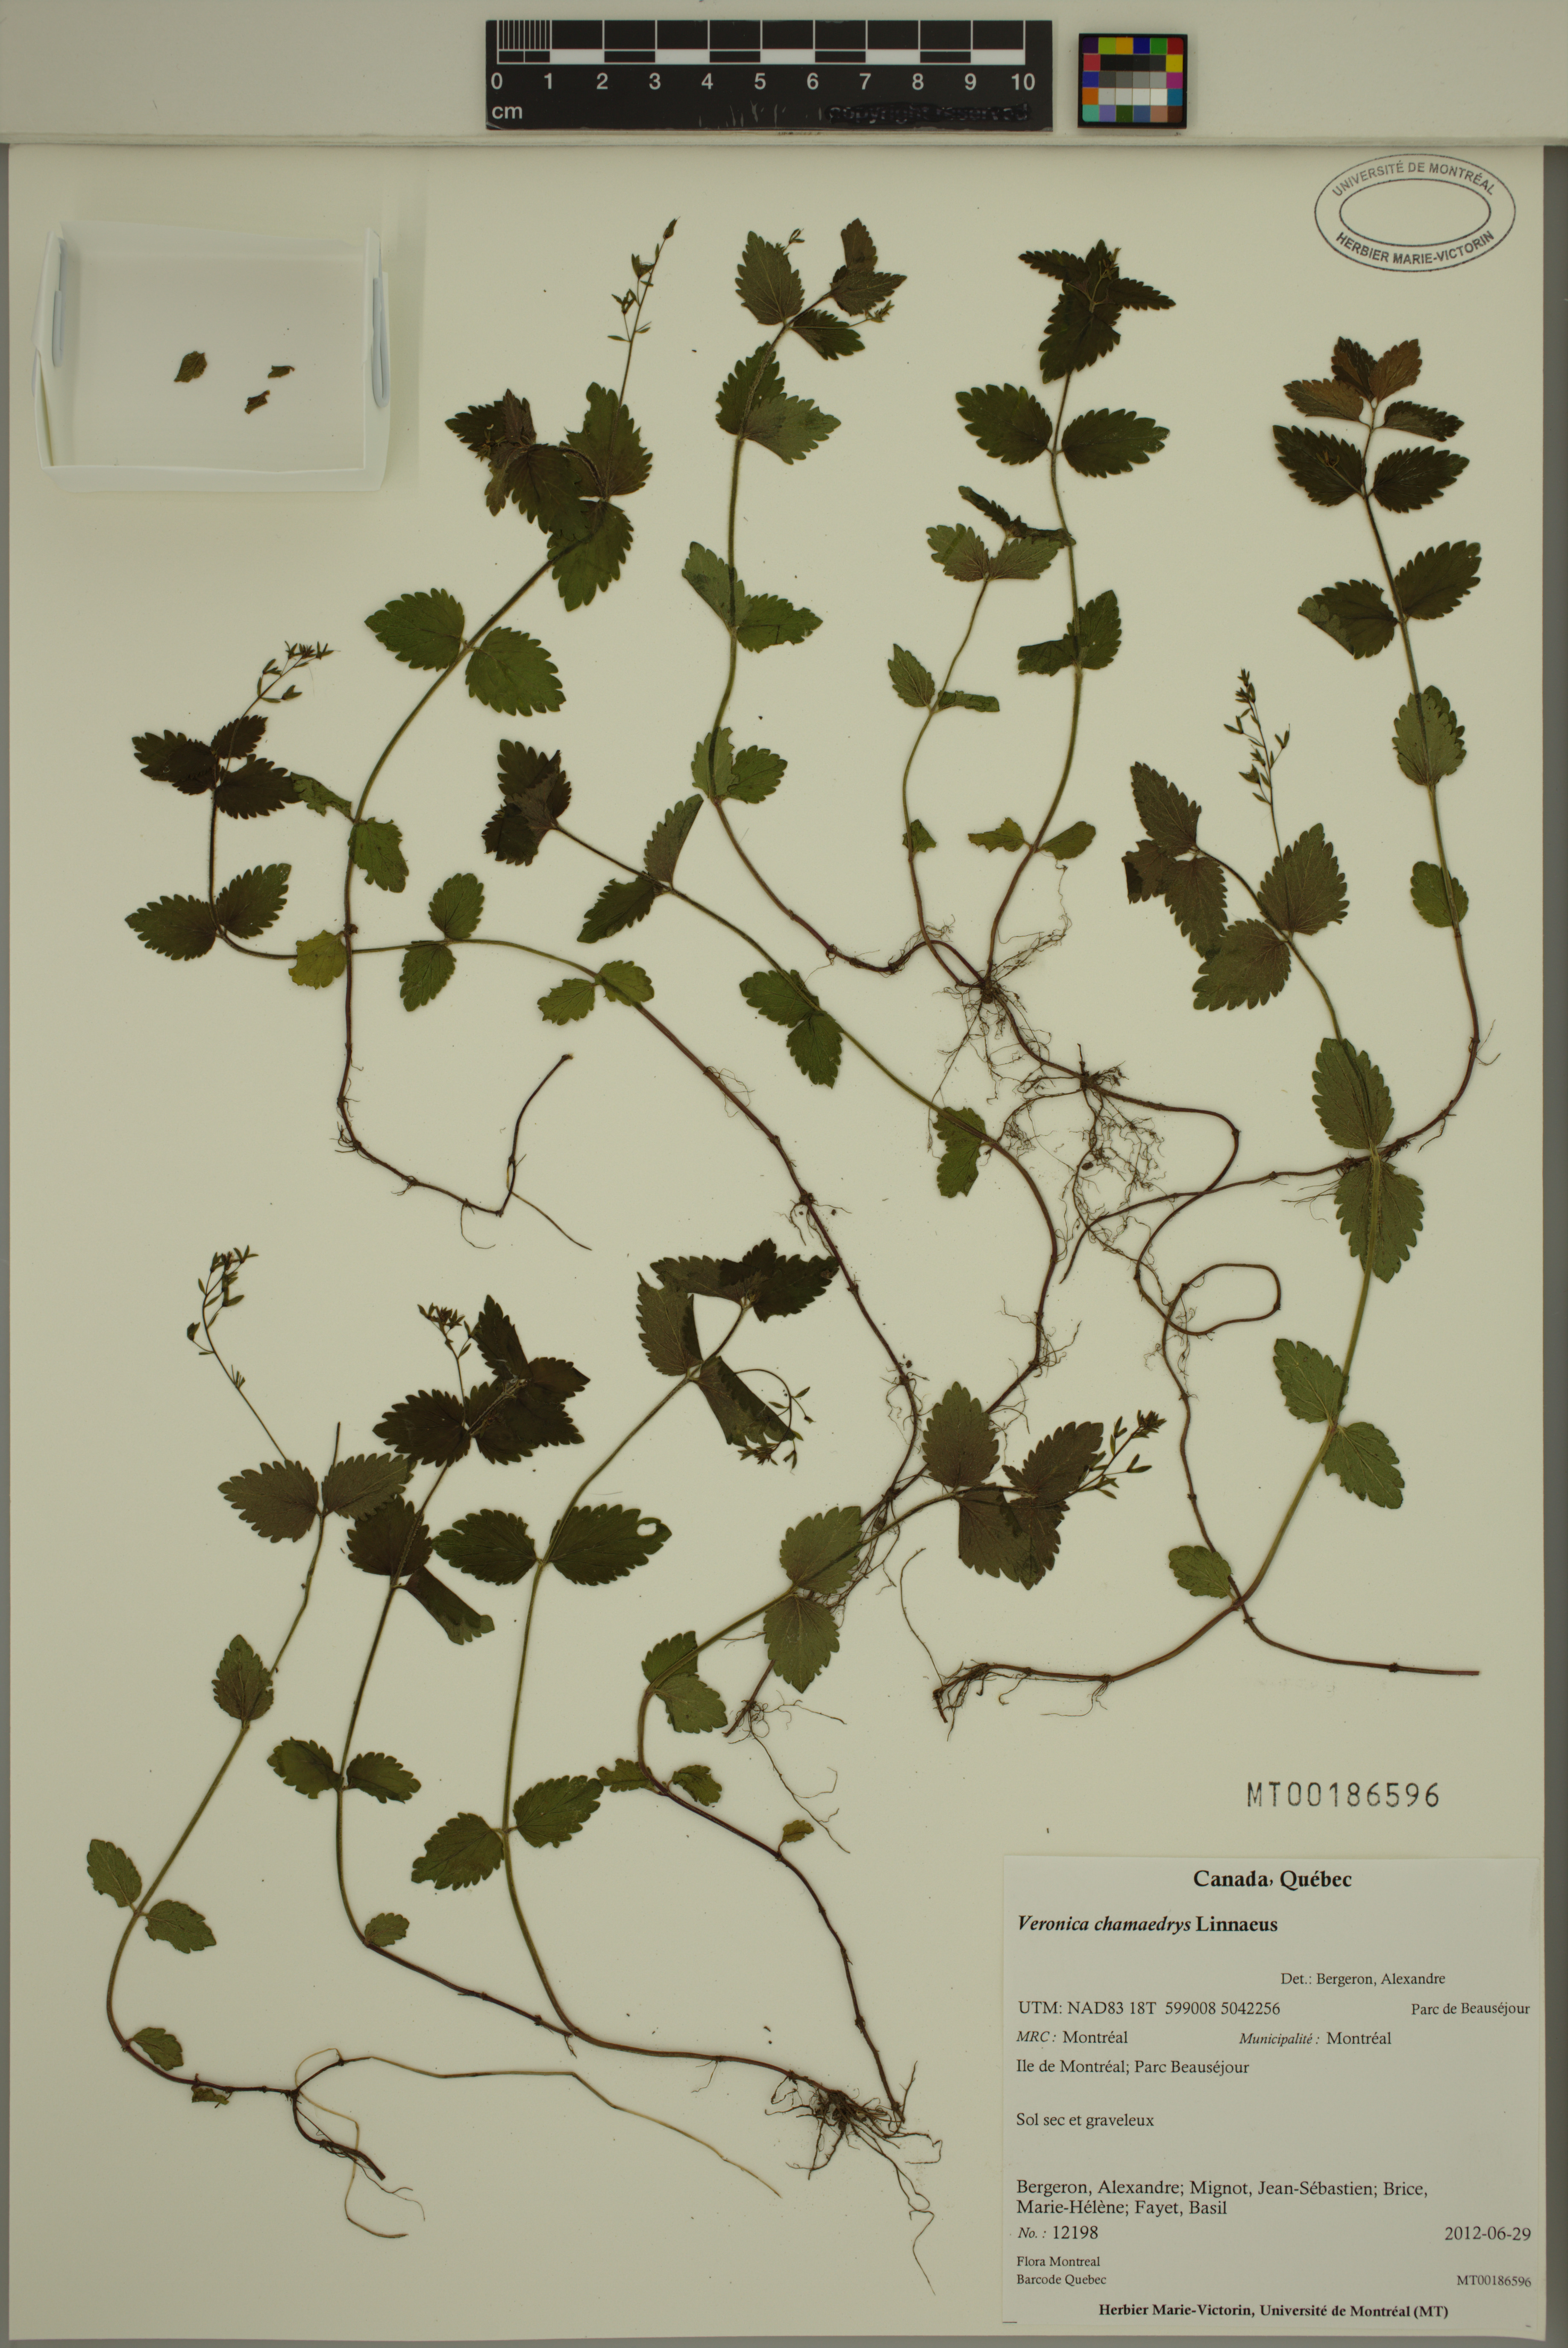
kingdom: Plantae
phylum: Tracheophyta
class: Magnoliopsida
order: Lamiales
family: Plantaginaceae
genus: Veronica
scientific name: Veronica chamaedrys
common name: Germander speedwell
